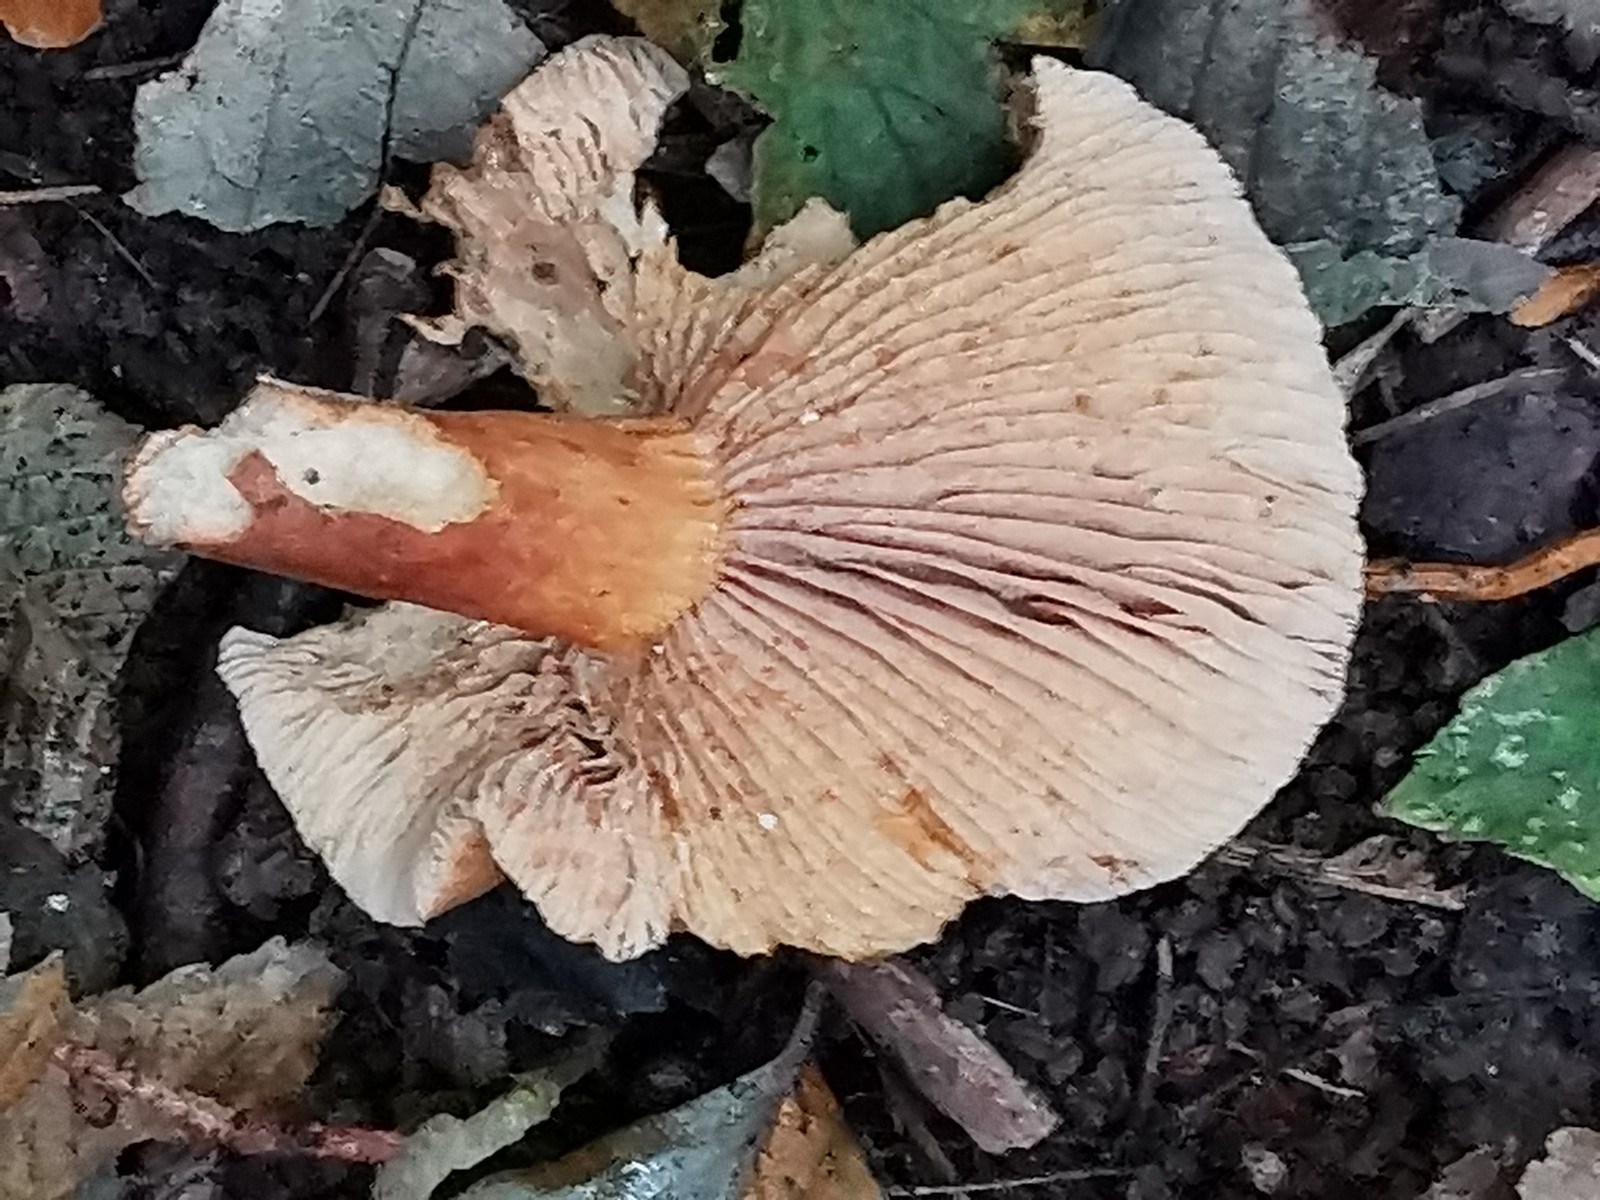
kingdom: Fungi
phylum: Basidiomycota
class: Agaricomycetes
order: Russulales
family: Russulaceae
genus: Lactarius
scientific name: Lactarius subdulcis
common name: sødlig mælkehat
